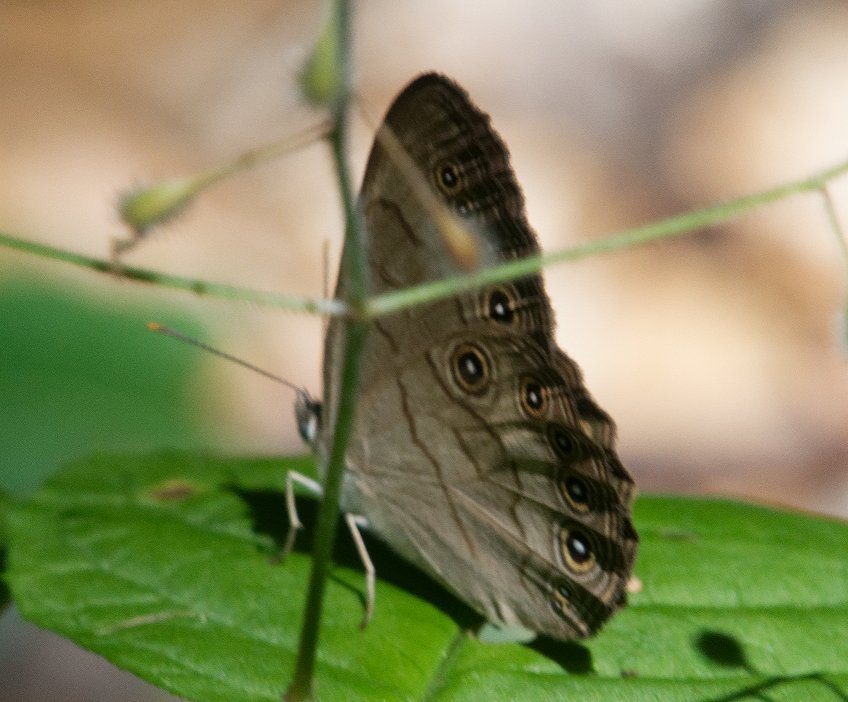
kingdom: Animalia
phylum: Arthropoda
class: Insecta
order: Lepidoptera
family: Nymphalidae
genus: Lethe
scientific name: Lethe eurydice
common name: Appalachian Eyed Brown
